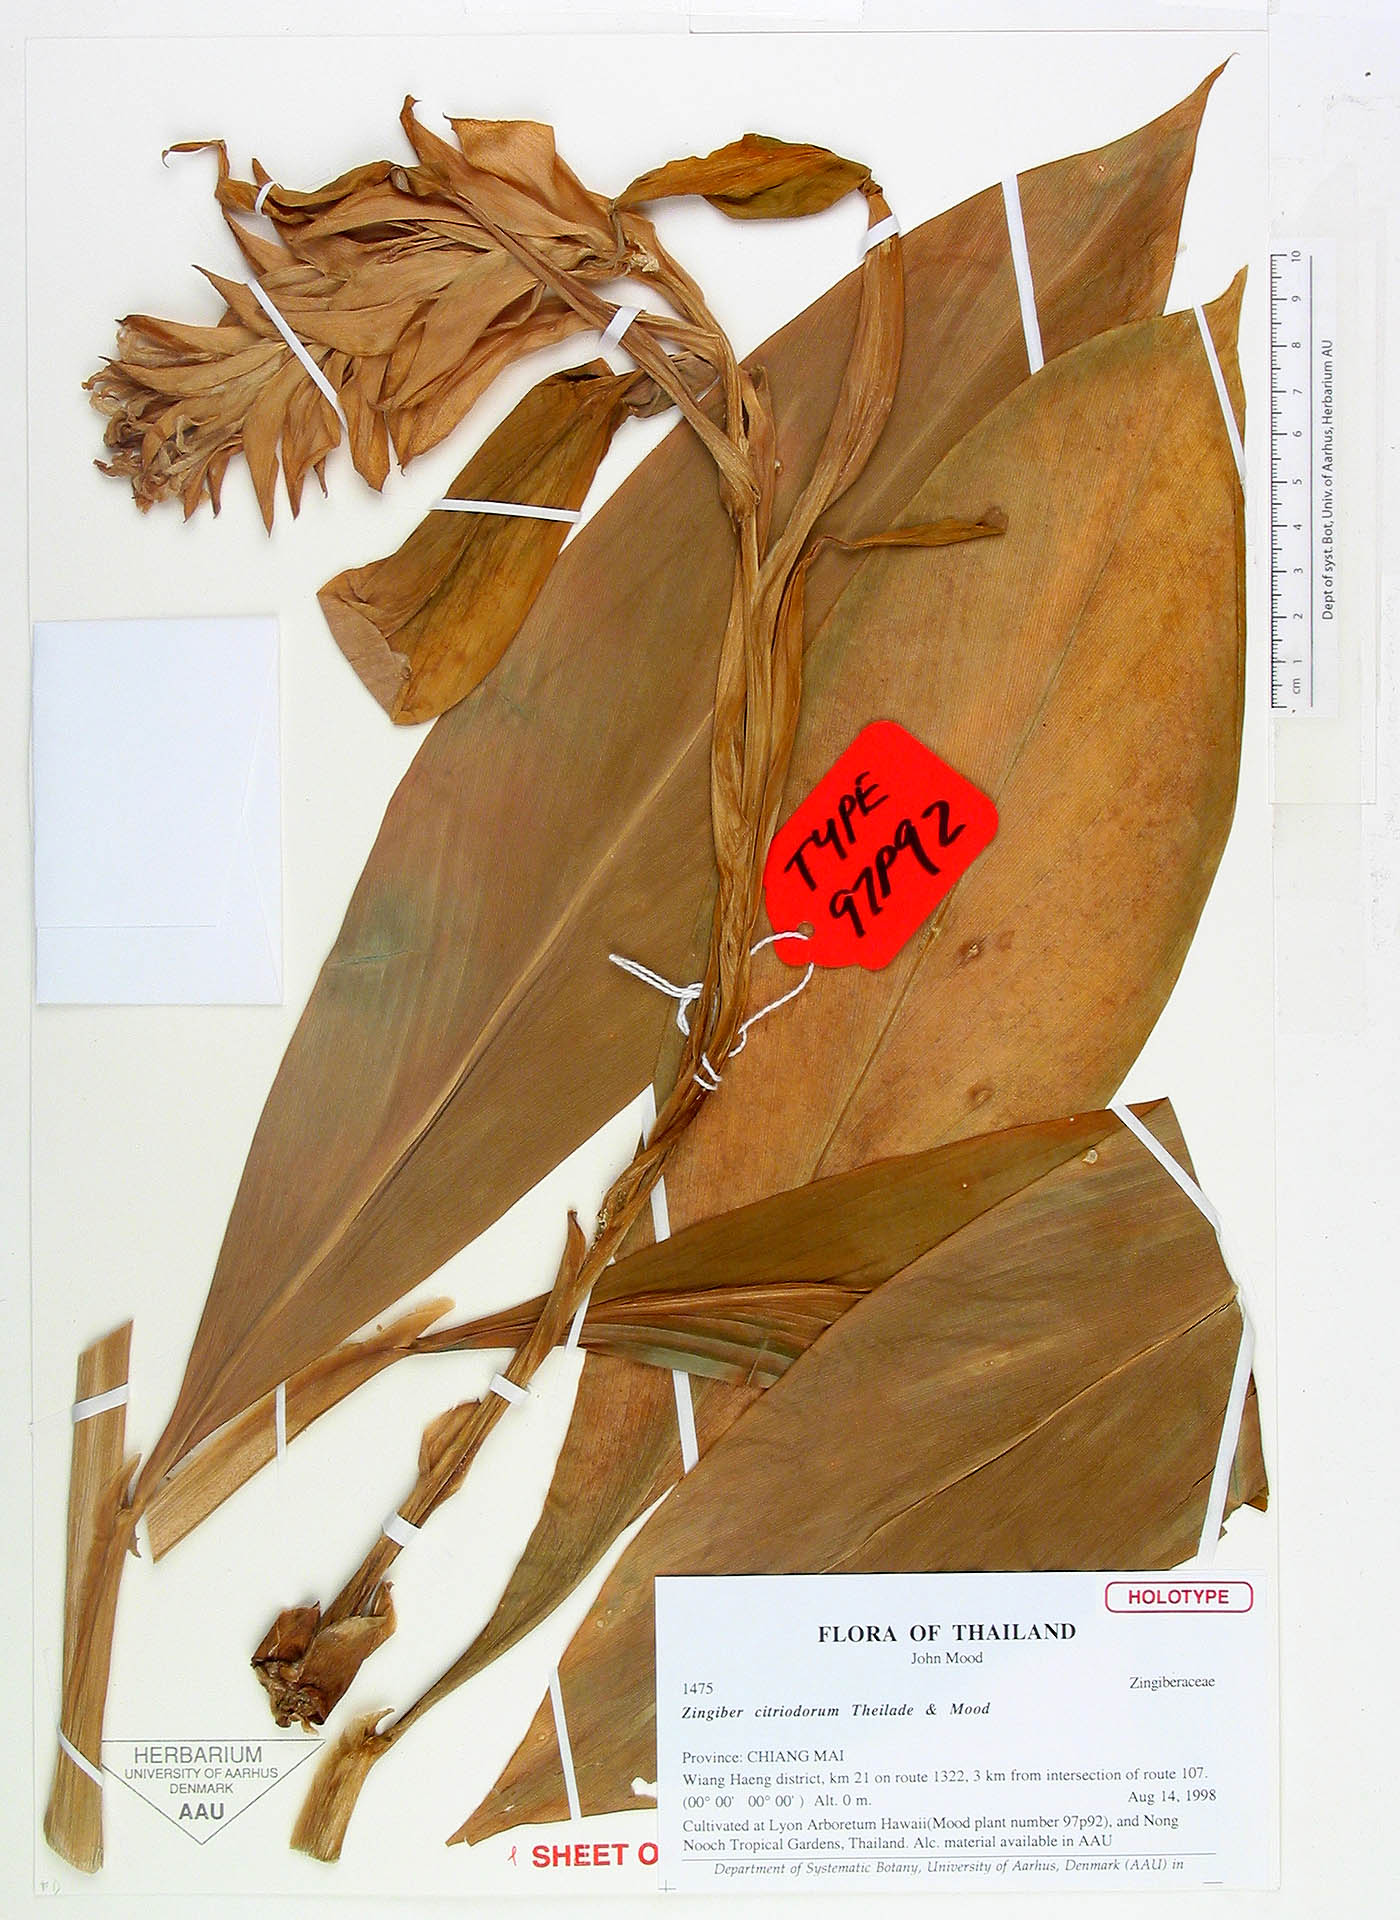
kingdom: Plantae
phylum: Tracheophyta
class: Liliopsida
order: Zingiberales
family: Zingiberaceae
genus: Zingiber
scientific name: Zingiber citriodorum
